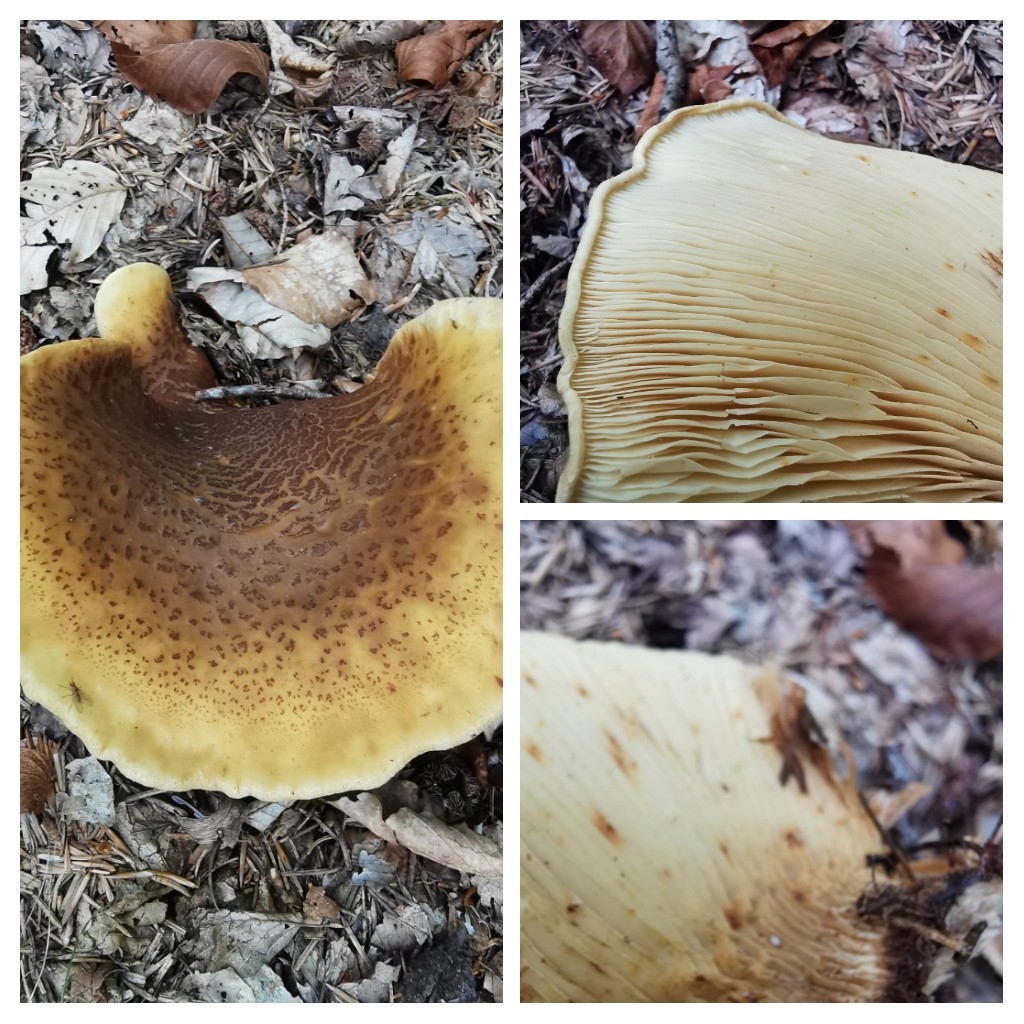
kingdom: Fungi
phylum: Basidiomycota
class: Agaricomycetes
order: Boletales
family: Tapinellaceae
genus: Tapinella
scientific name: Tapinella atrotomentosa
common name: sortfiltet viftesvamp
